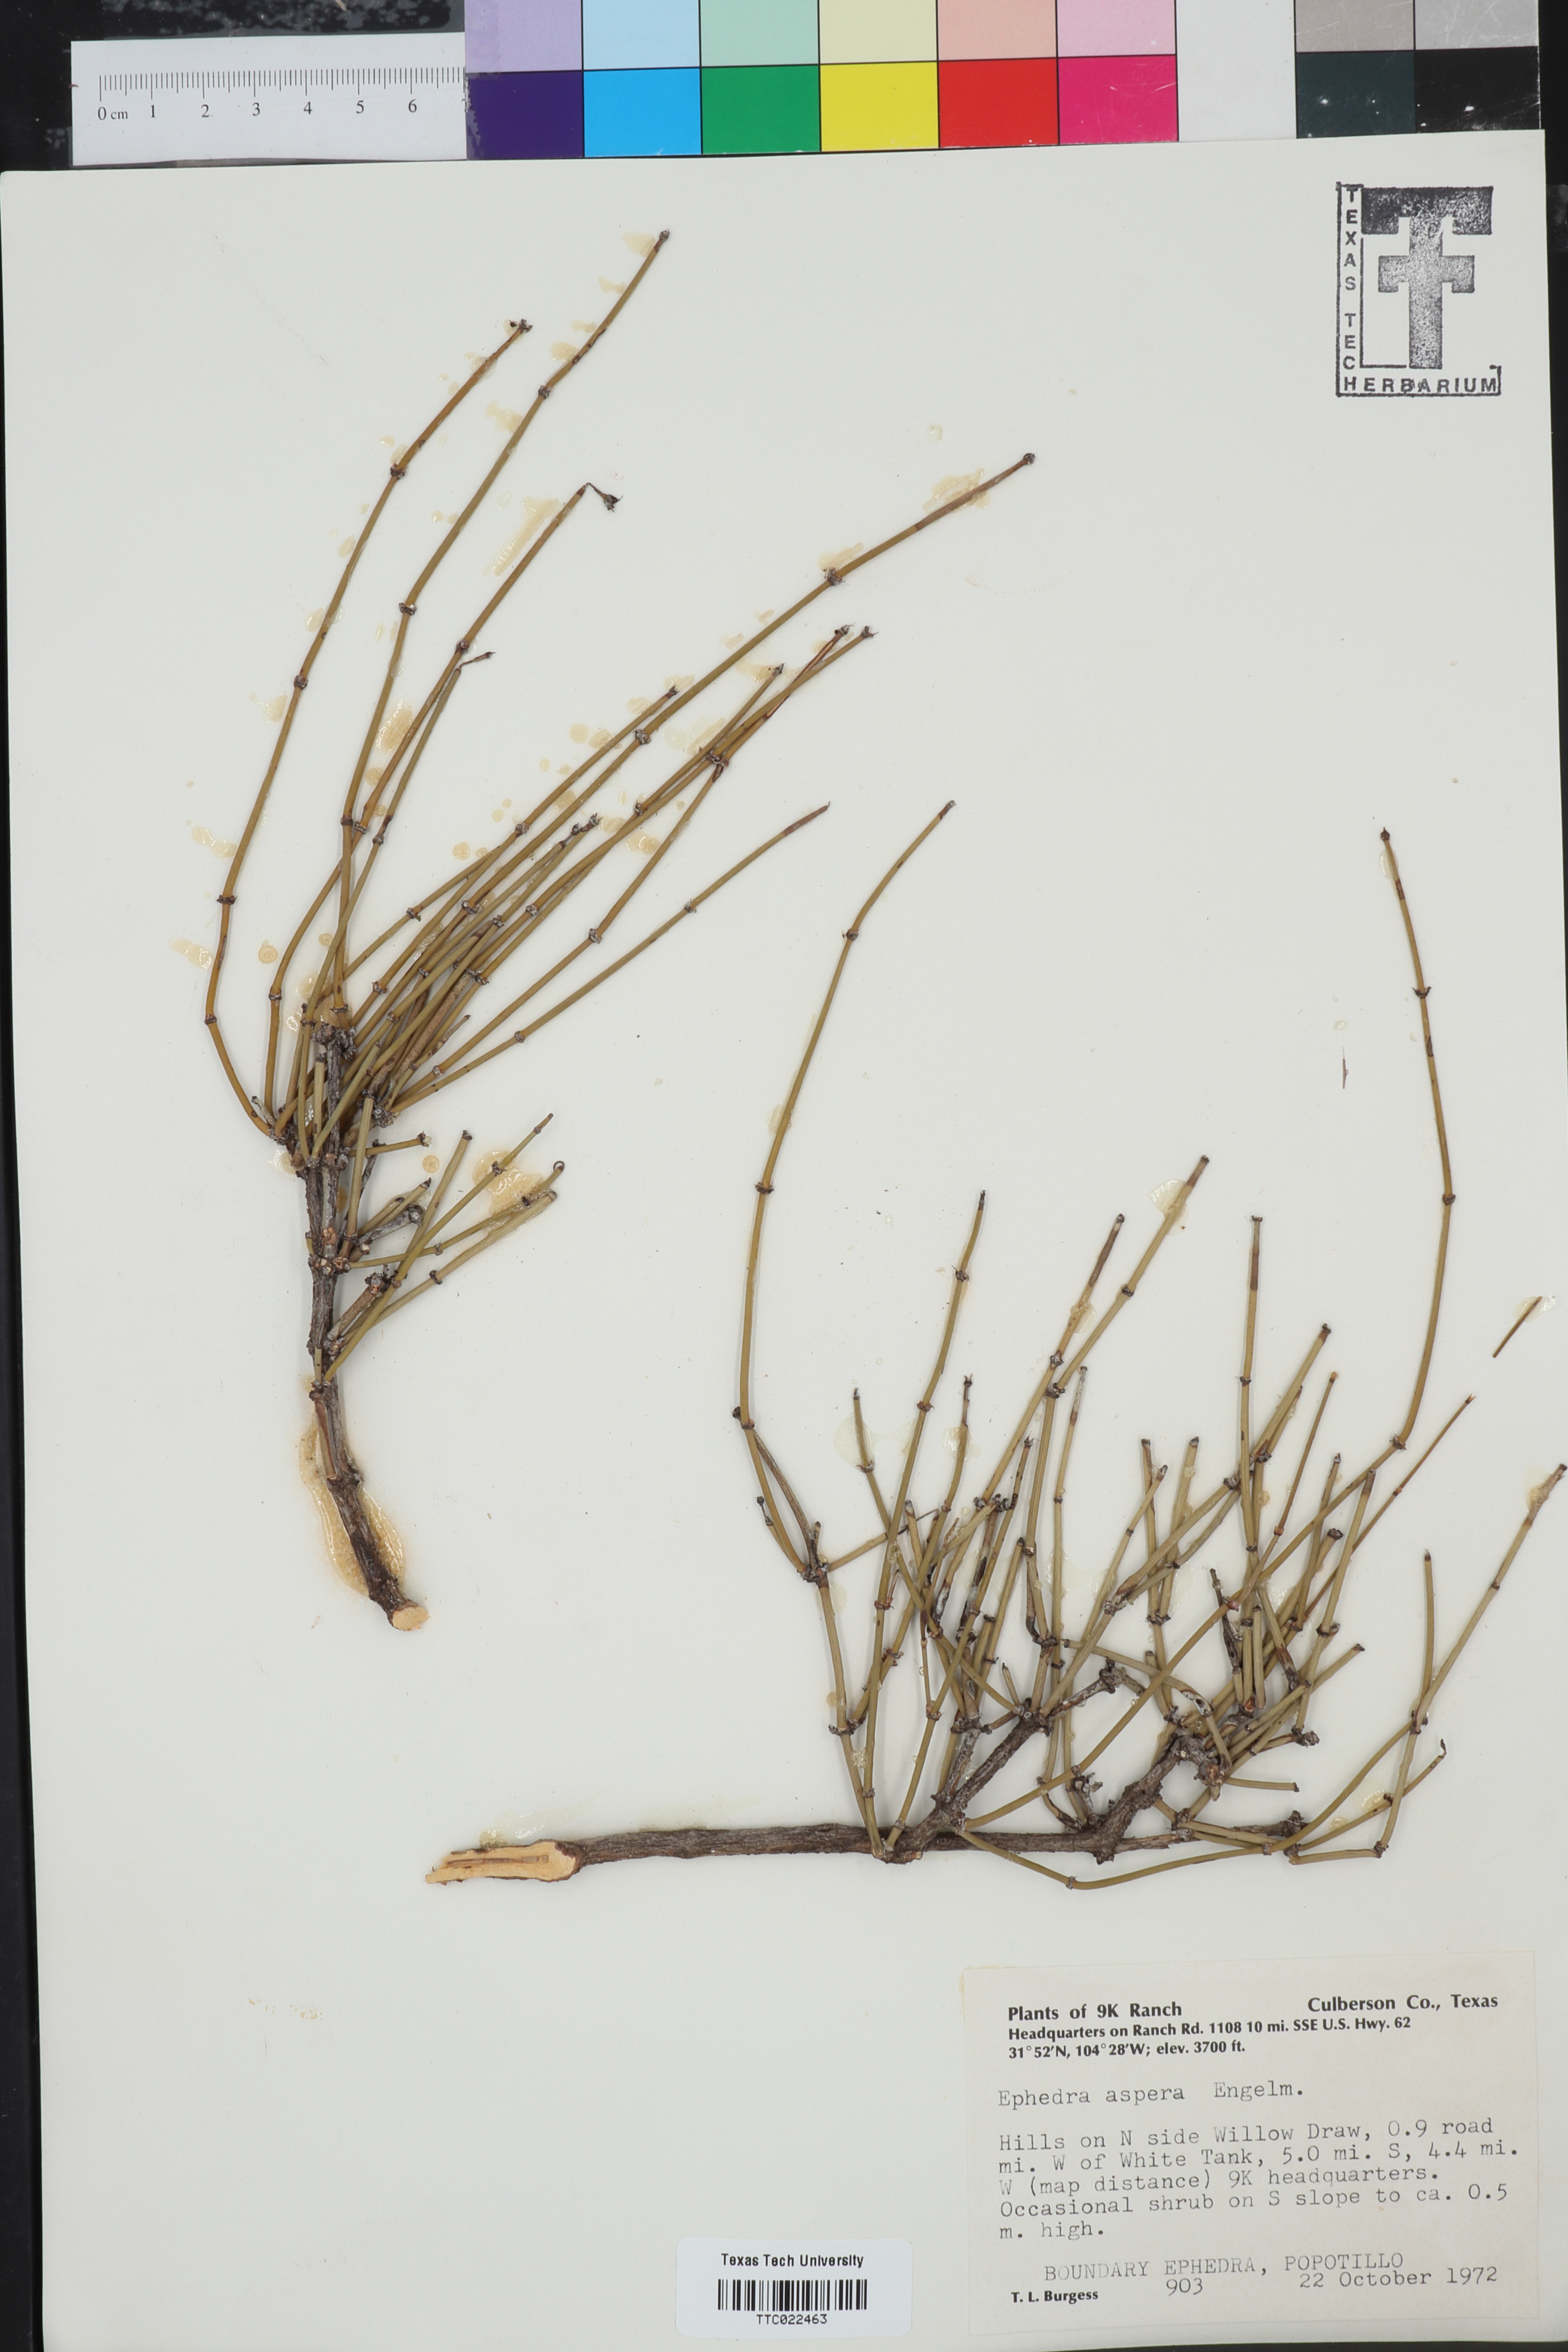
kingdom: Plantae
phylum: Tracheophyta
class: Gnetopsida
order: Ephedrales
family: Ephedraceae
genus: Ephedra
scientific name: Ephedra aspera
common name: Boundary ephedra
